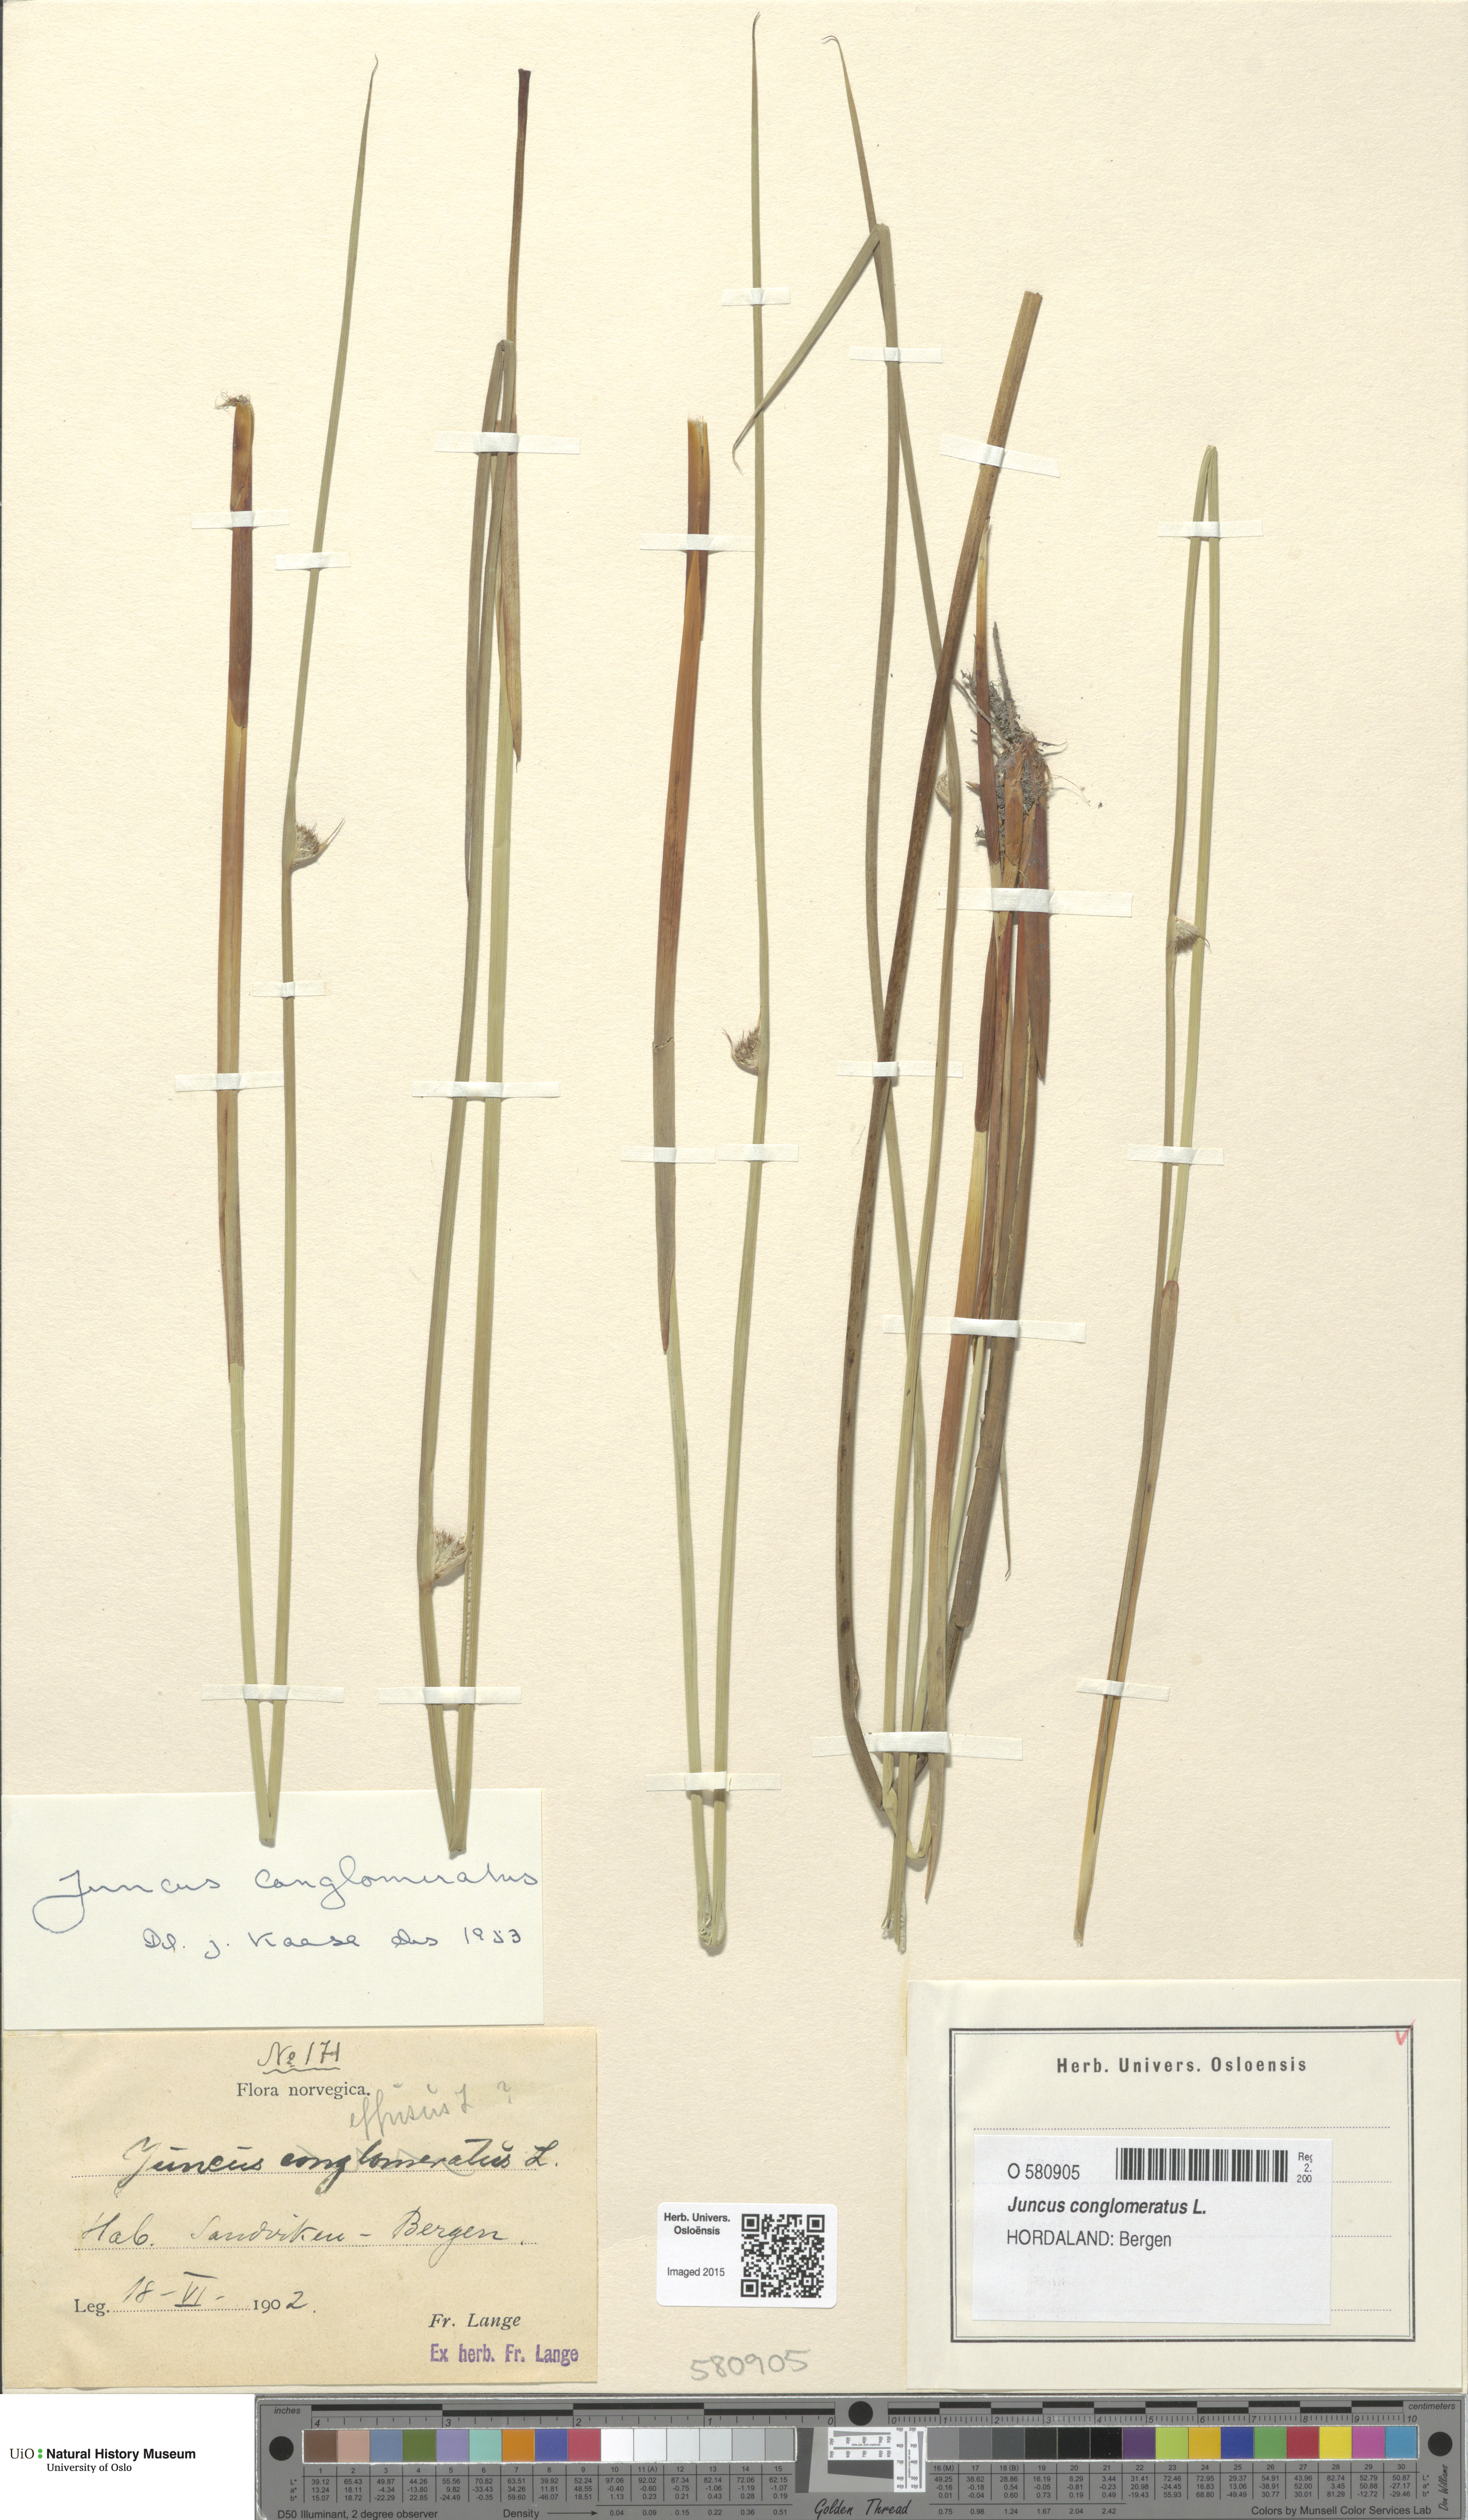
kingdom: Plantae
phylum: Tracheophyta
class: Liliopsida
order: Poales
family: Juncaceae
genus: Juncus
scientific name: Juncus conglomeratus
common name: Compact rush
